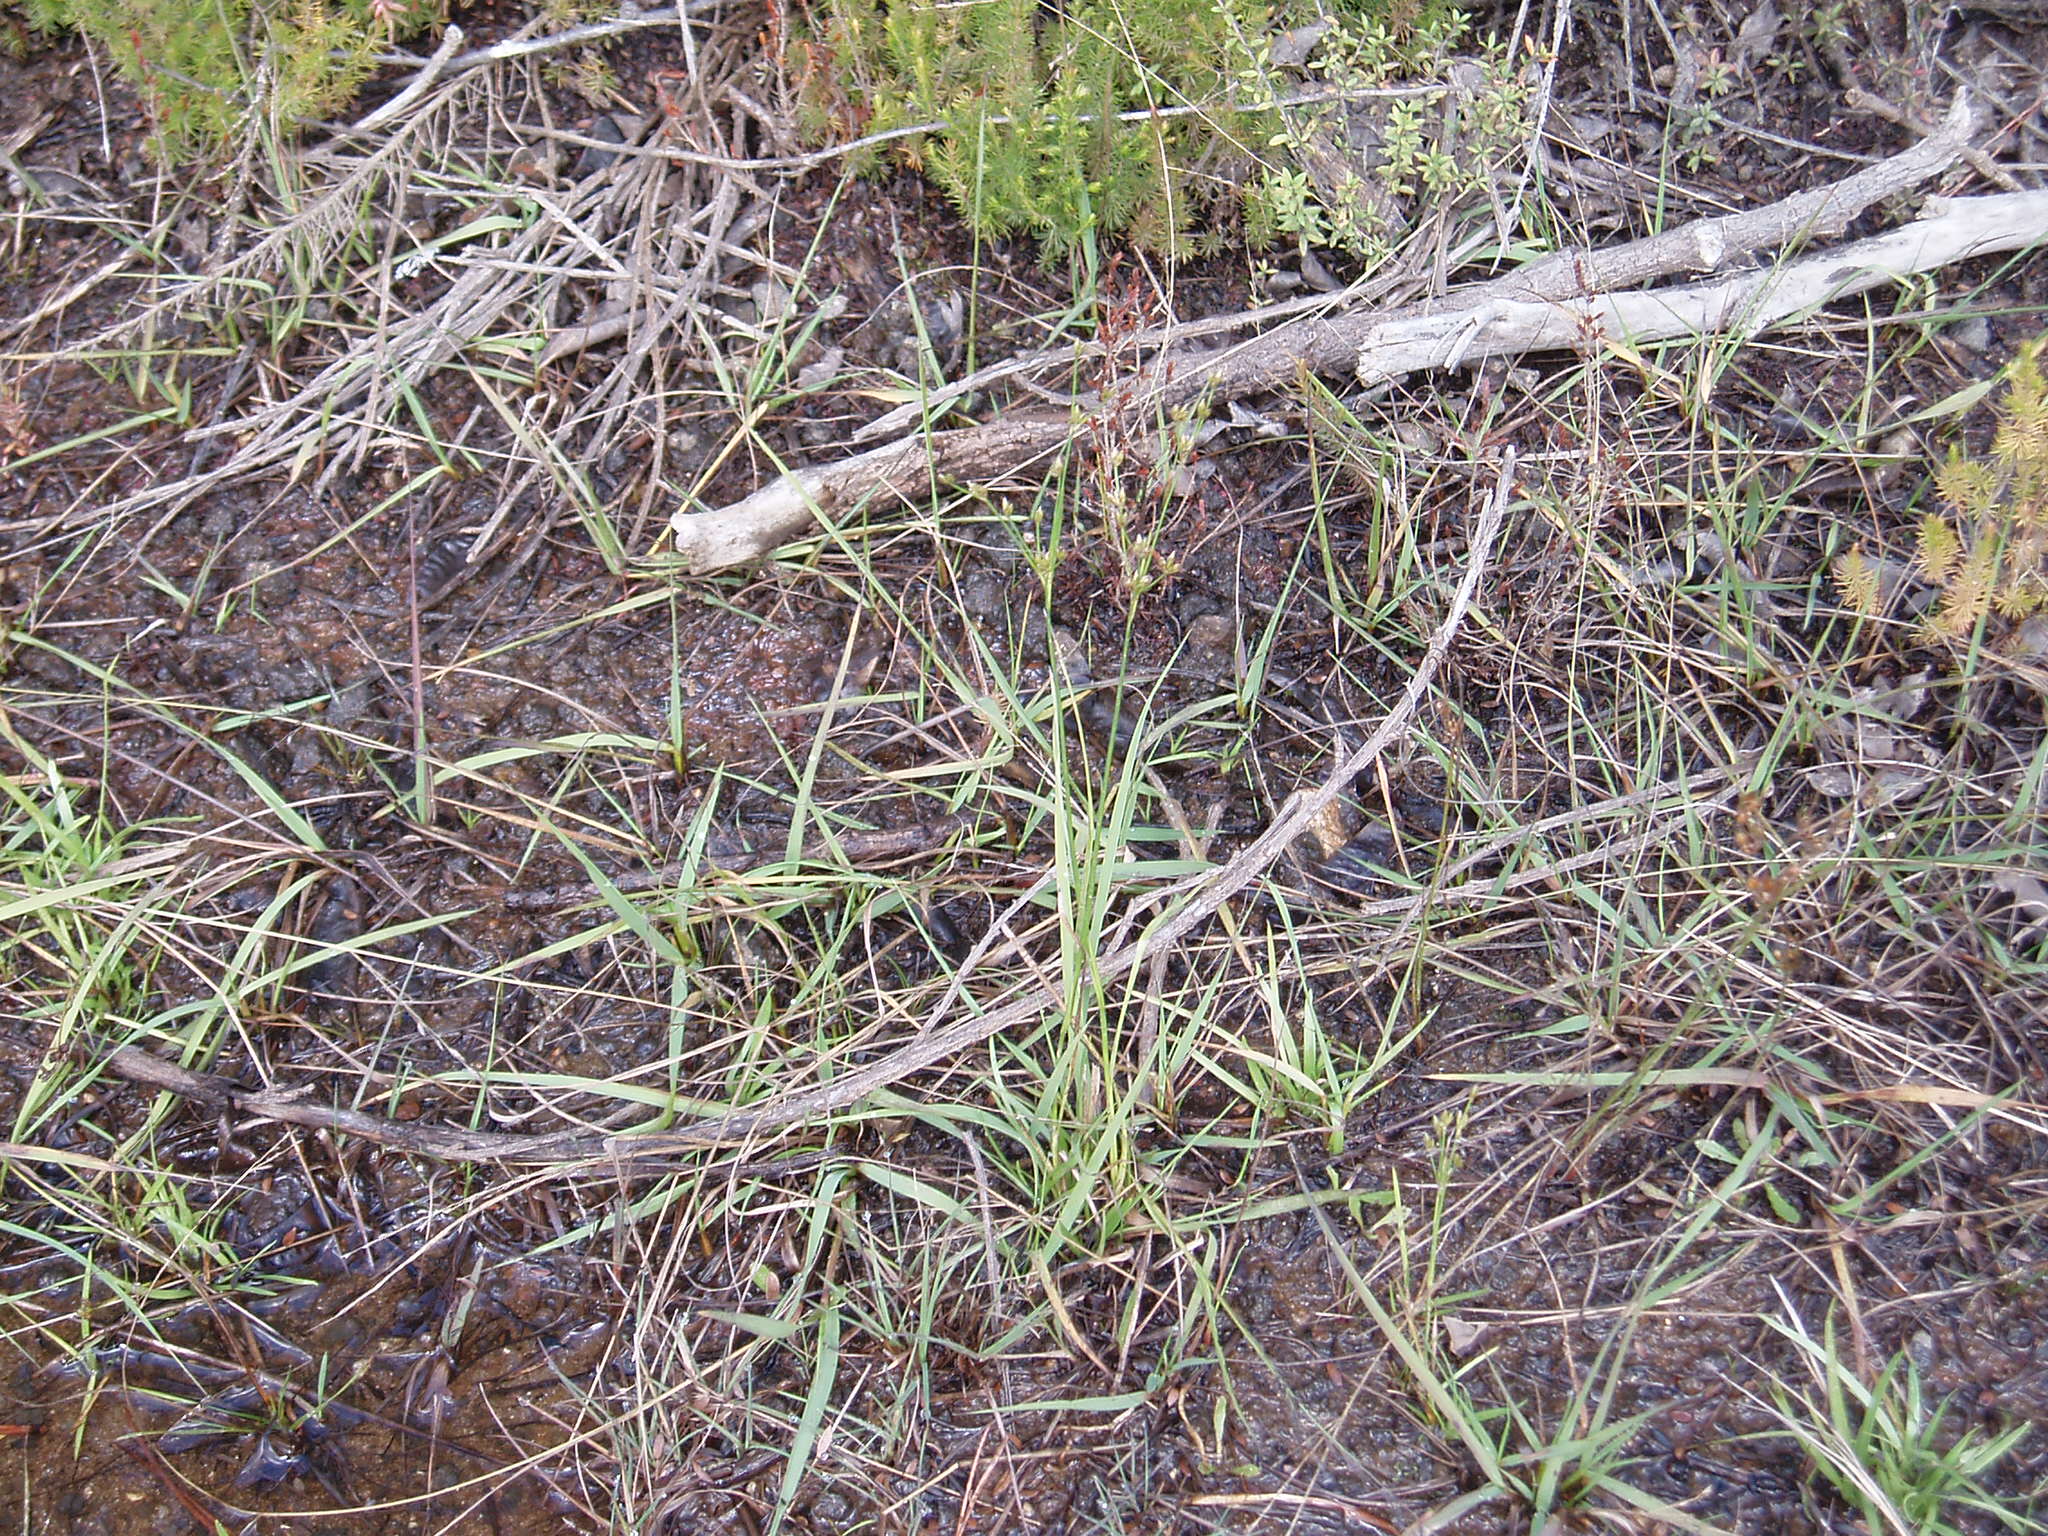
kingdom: Plantae
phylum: Tracheophyta
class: Liliopsida
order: Poales
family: Juncaceae
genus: Juncus
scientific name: Juncus planifolius
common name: Broadleaf rush
